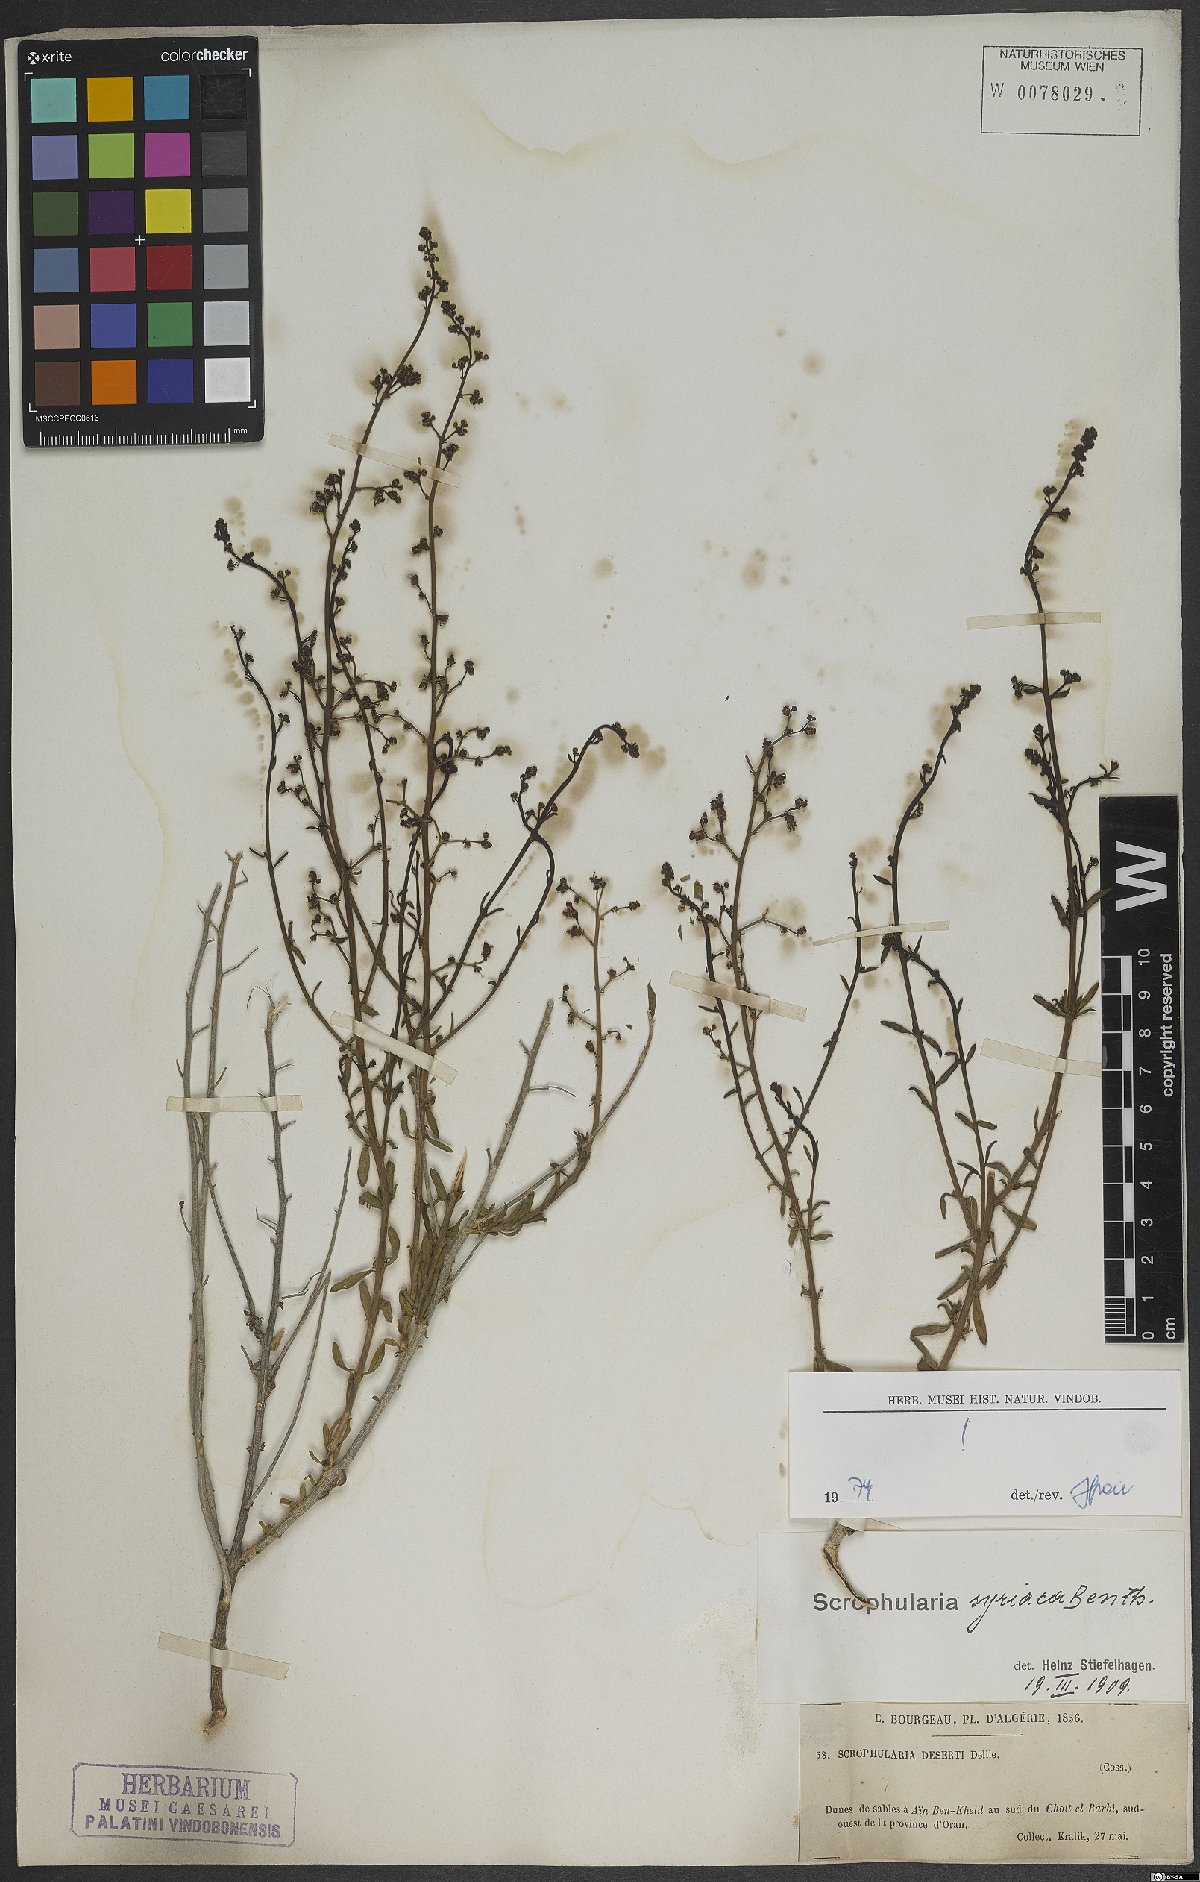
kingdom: Plantae
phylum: Tracheophyta
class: Magnoliopsida
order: Lamiales
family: Scrophulariaceae
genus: Scrophularia
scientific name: Scrophularia hypericifolia
